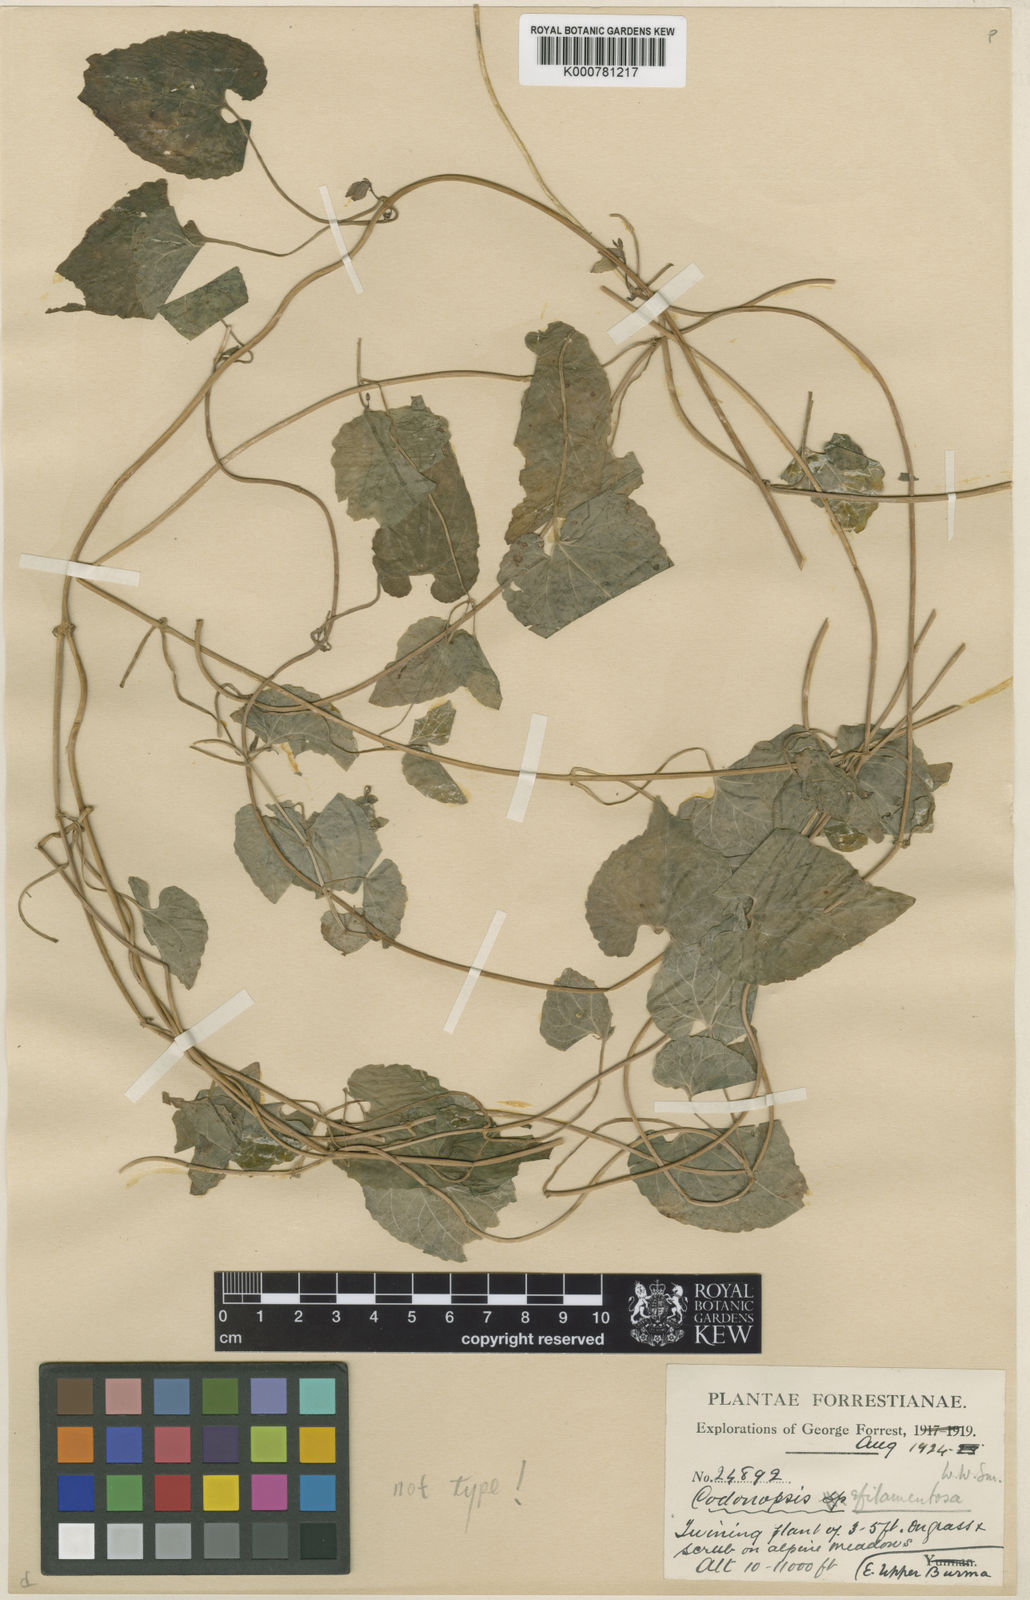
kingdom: Plantae
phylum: Tracheophyta
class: Magnoliopsida
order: Asterales
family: Campanulaceae
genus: Pseudocodon
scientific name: Pseudocodon convolvulaceus
